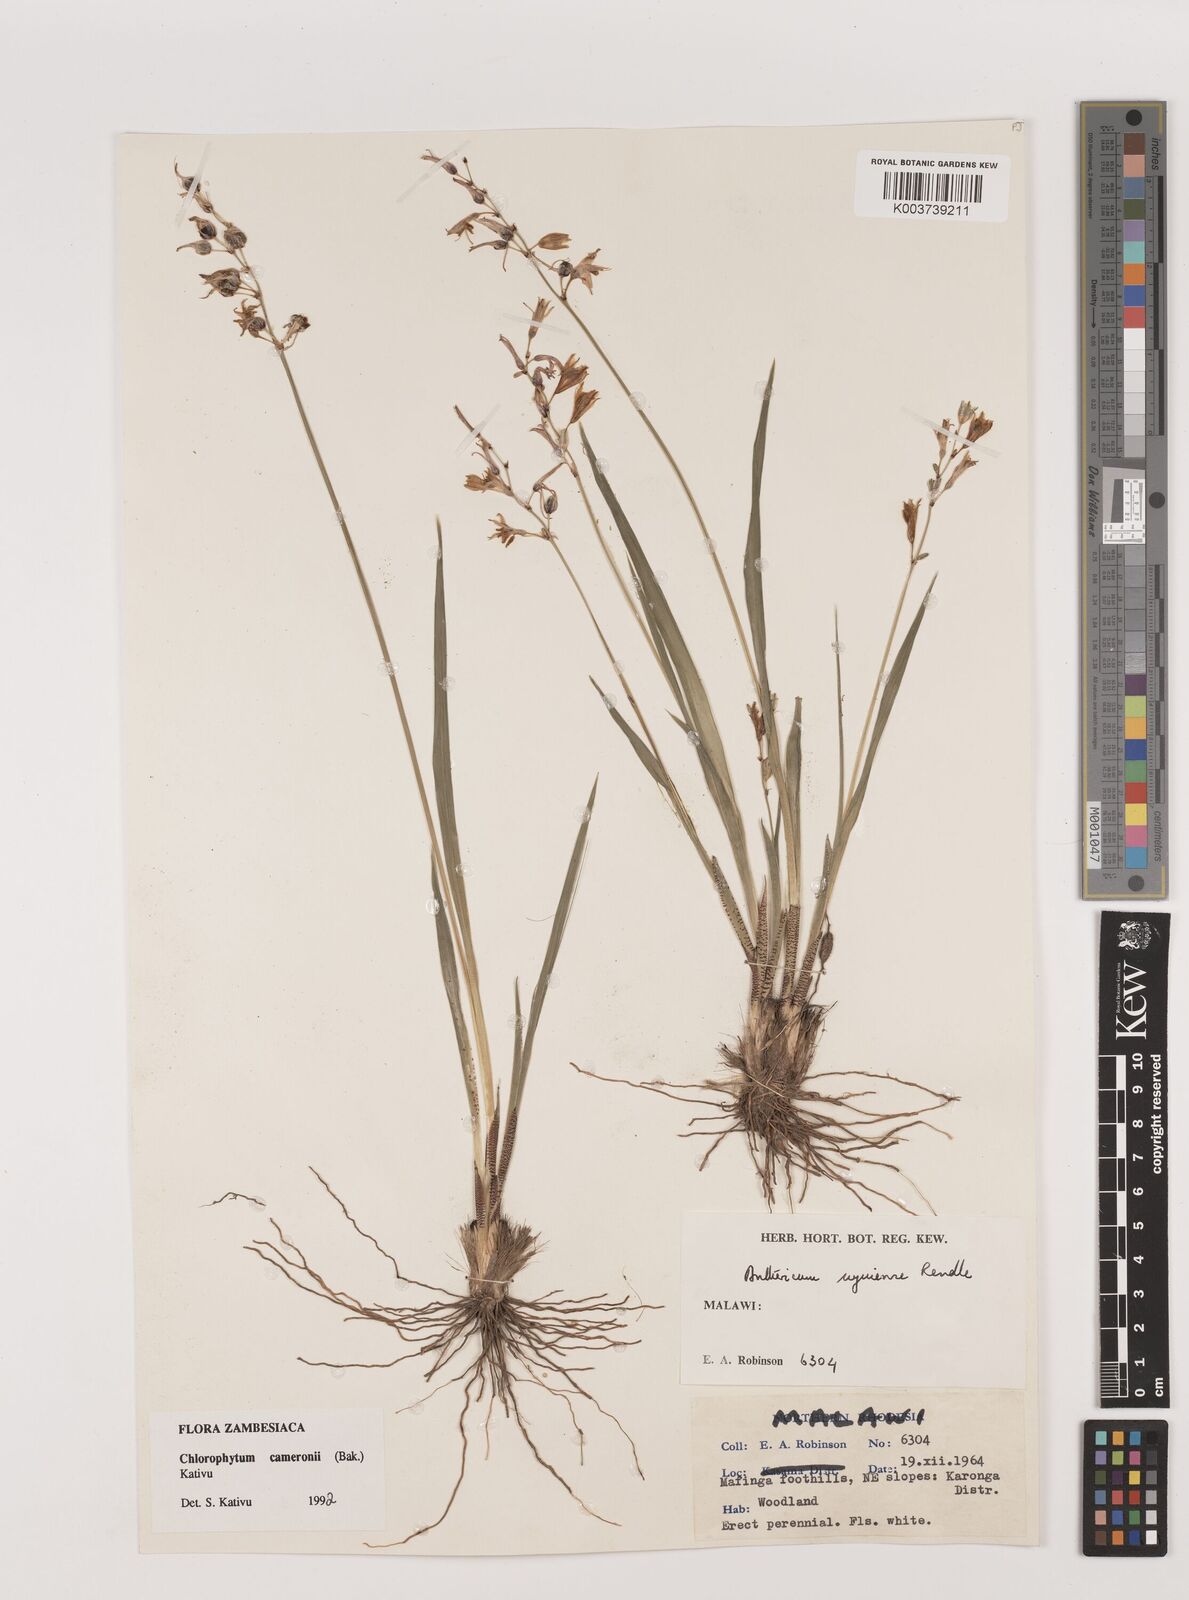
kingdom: Plantae
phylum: Tracheophyta
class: Liliopsida
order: Asparagales
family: Asparagaceae
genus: Chlorophytum
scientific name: Chlorophytum cameronii
